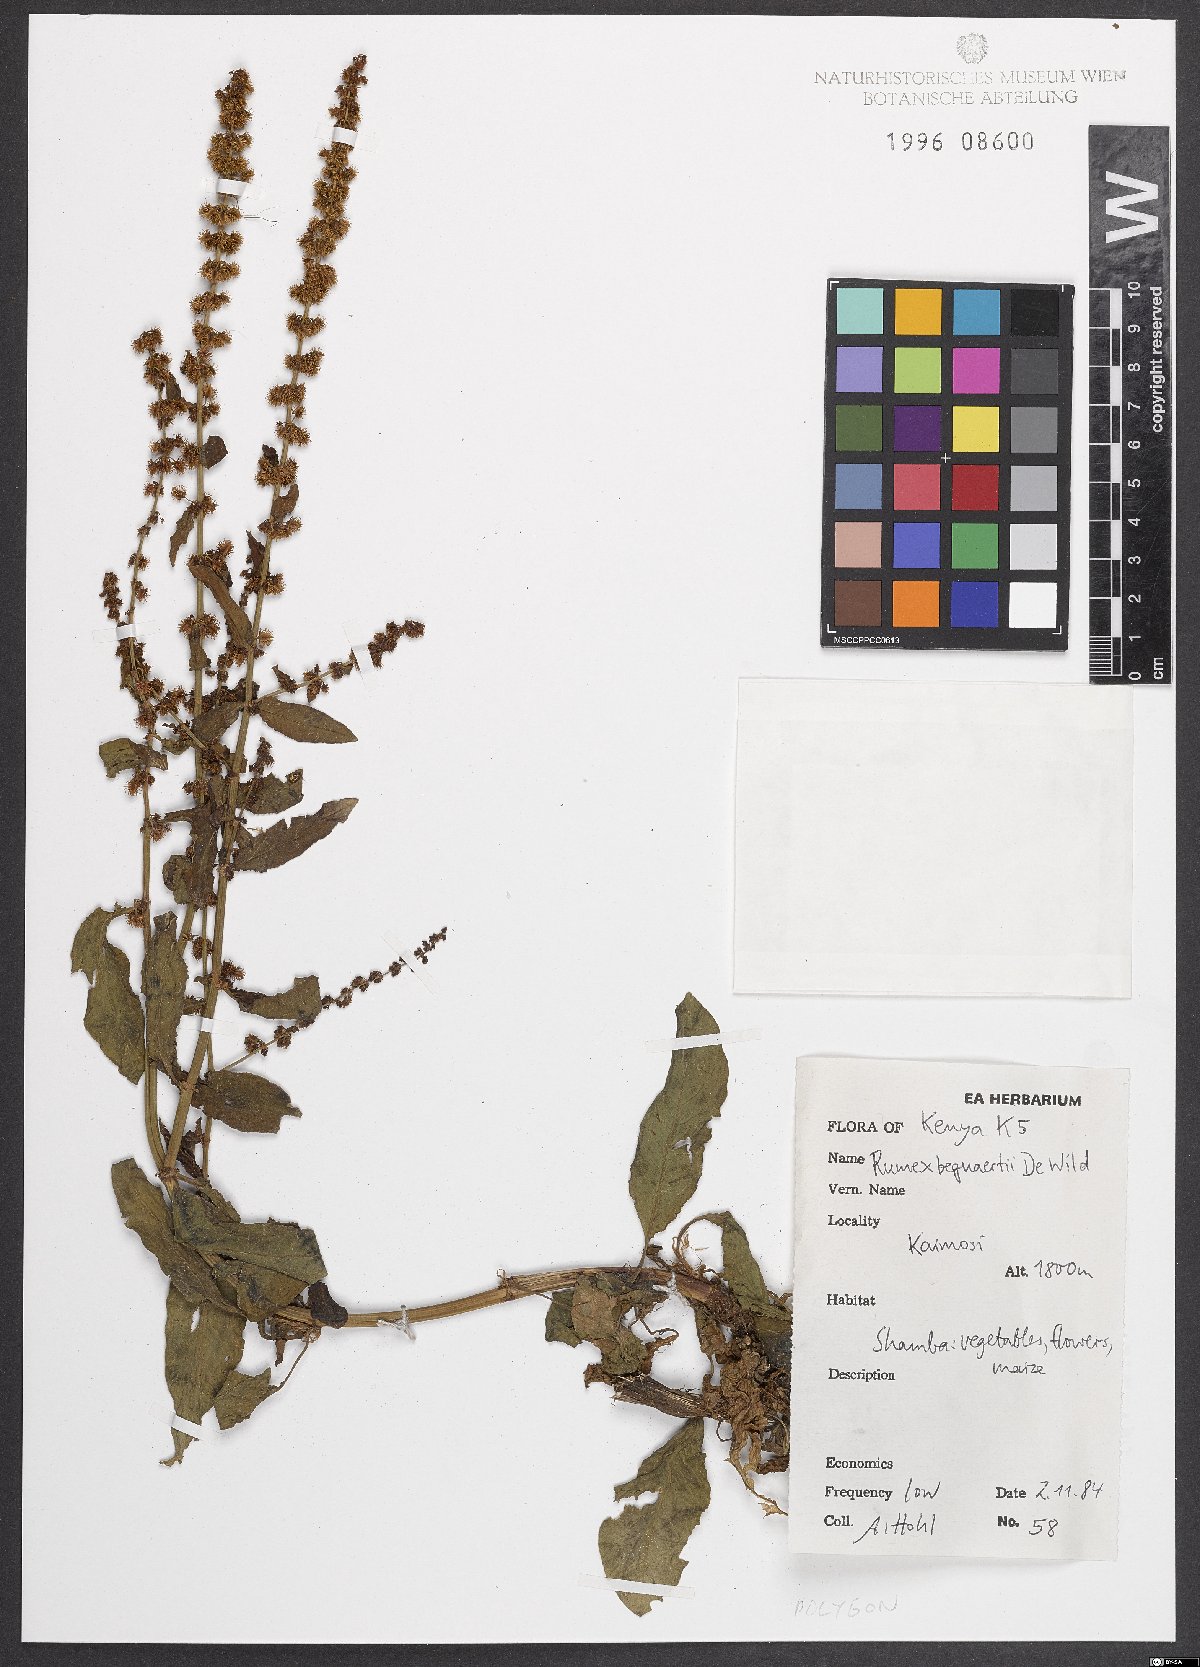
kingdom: Plantae
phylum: Tracheophyta
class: Magnoliopsida
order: Caryophyllales
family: Polygonaceae
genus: Rumex
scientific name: Rumex bequaertii
